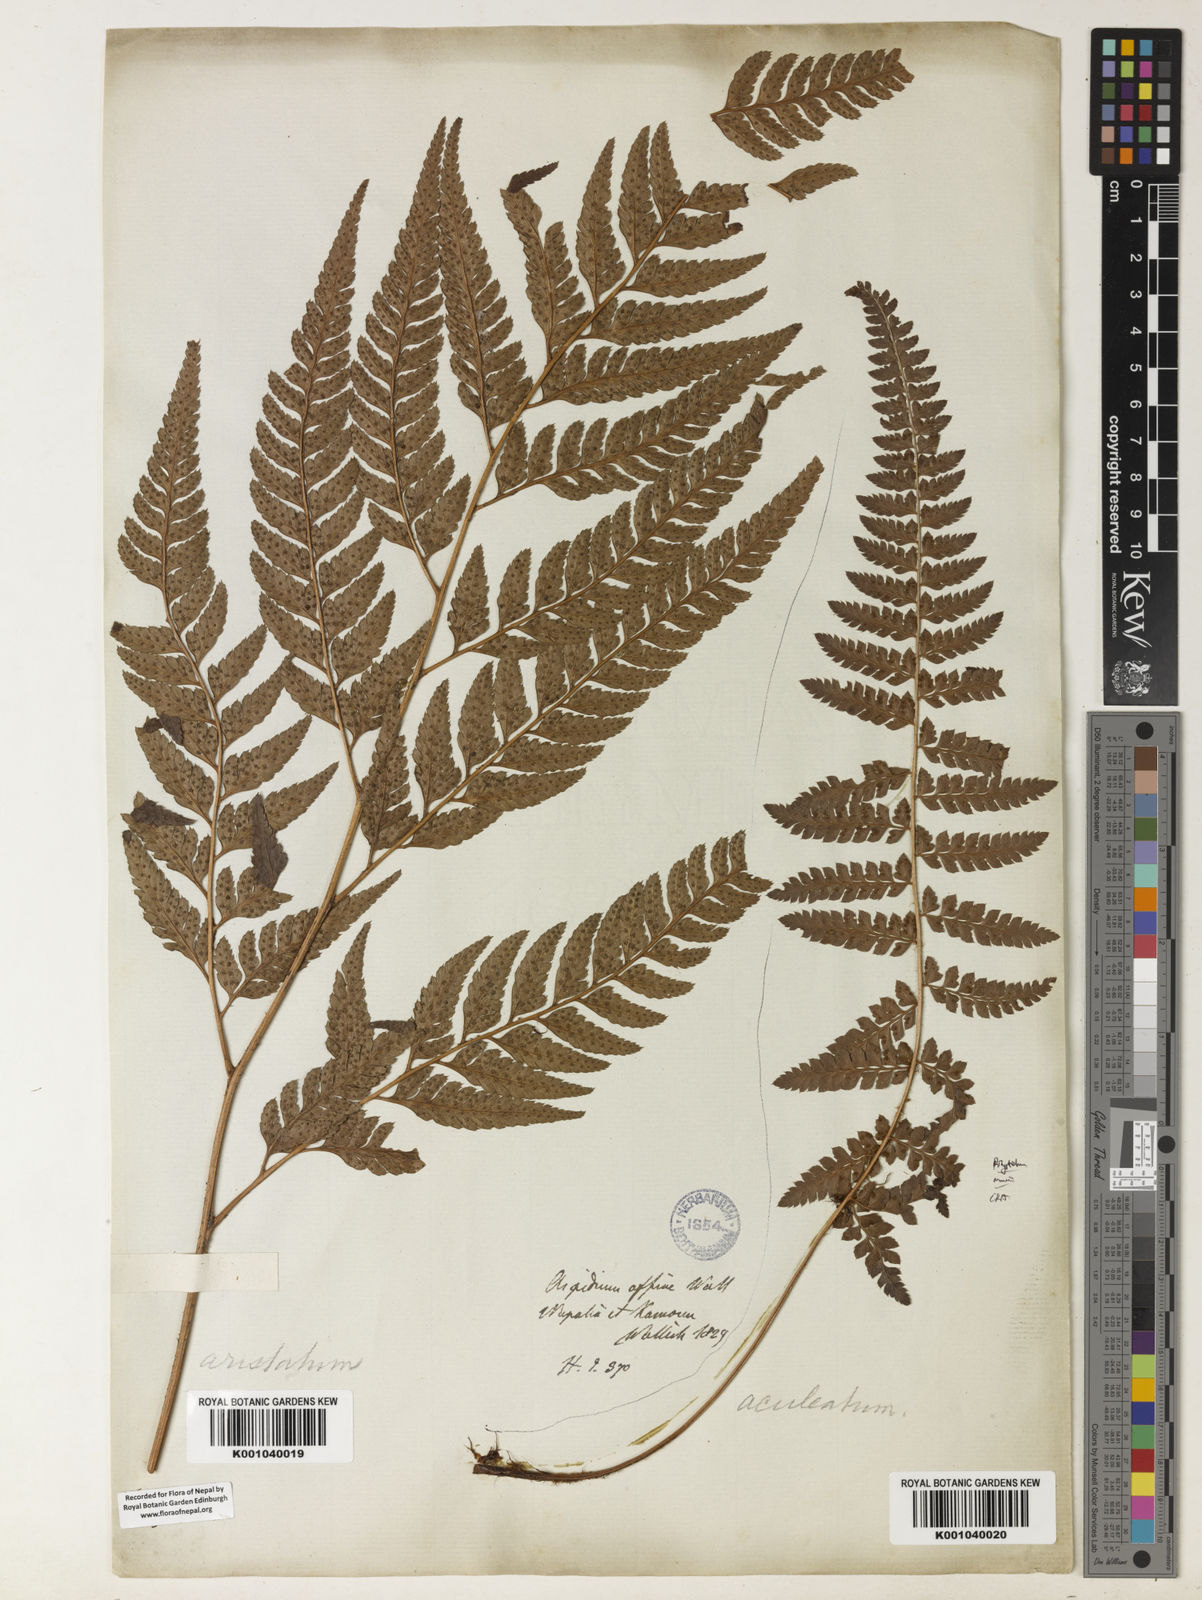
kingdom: Plantae
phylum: Tracheophyta
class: Polypodiopsida
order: Polypodiales
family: Dryopteridaceae
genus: Arachniodes
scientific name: Arachniodes coniifolia
